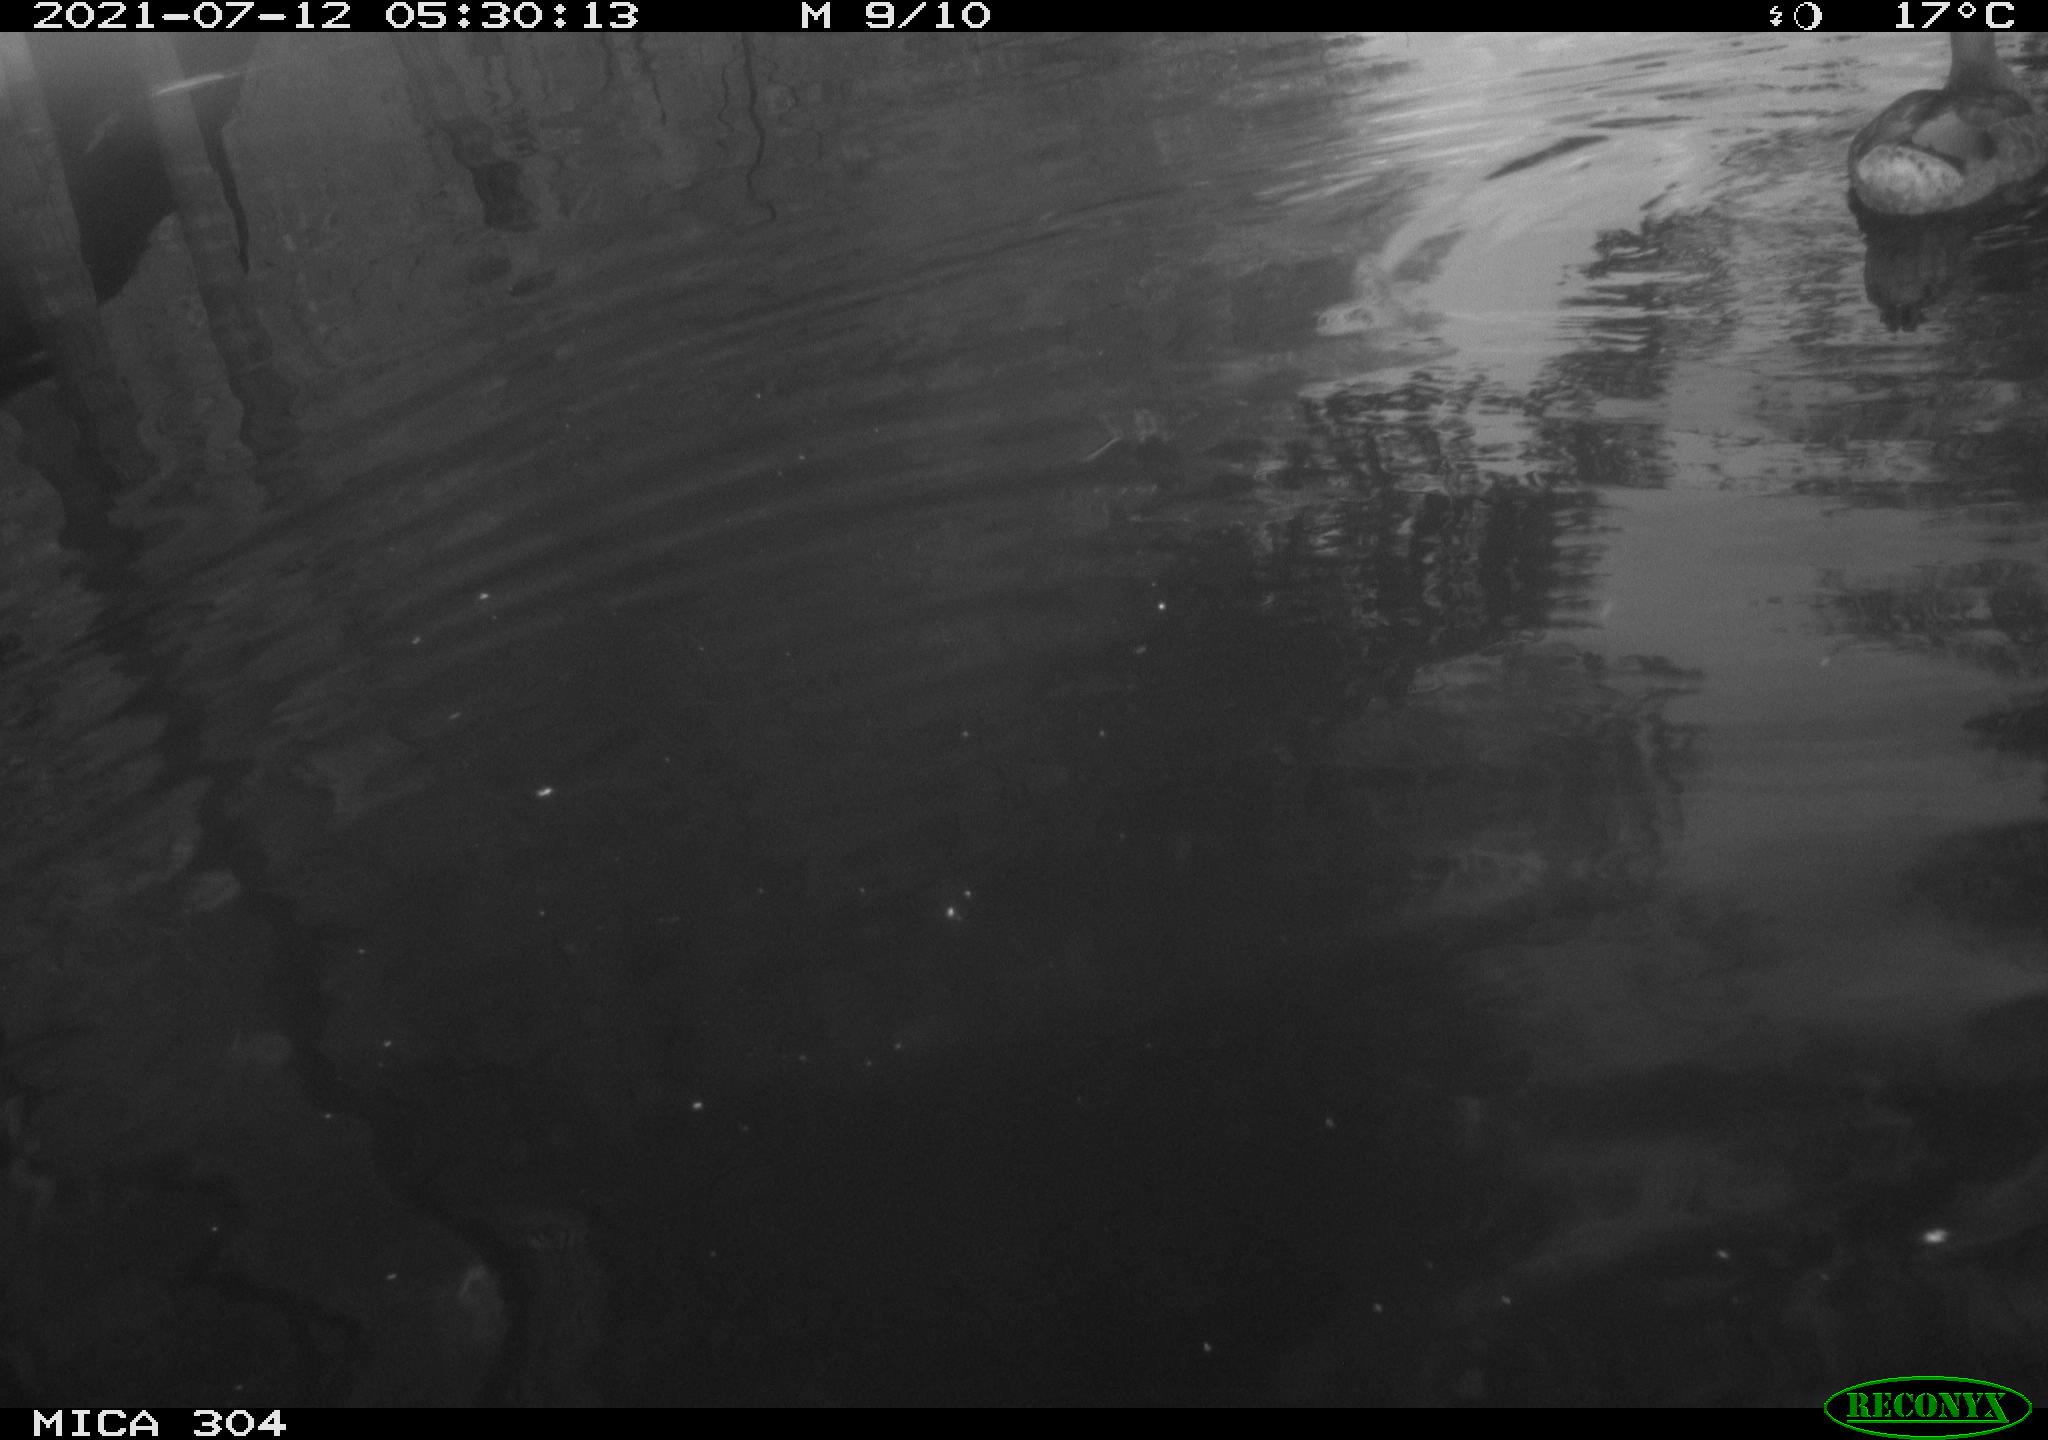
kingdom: Animalia
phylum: Chordata
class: Aves
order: Anseriformes
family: Anatidae
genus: Anas
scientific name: Anas platyrhynchos
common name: Mallard
